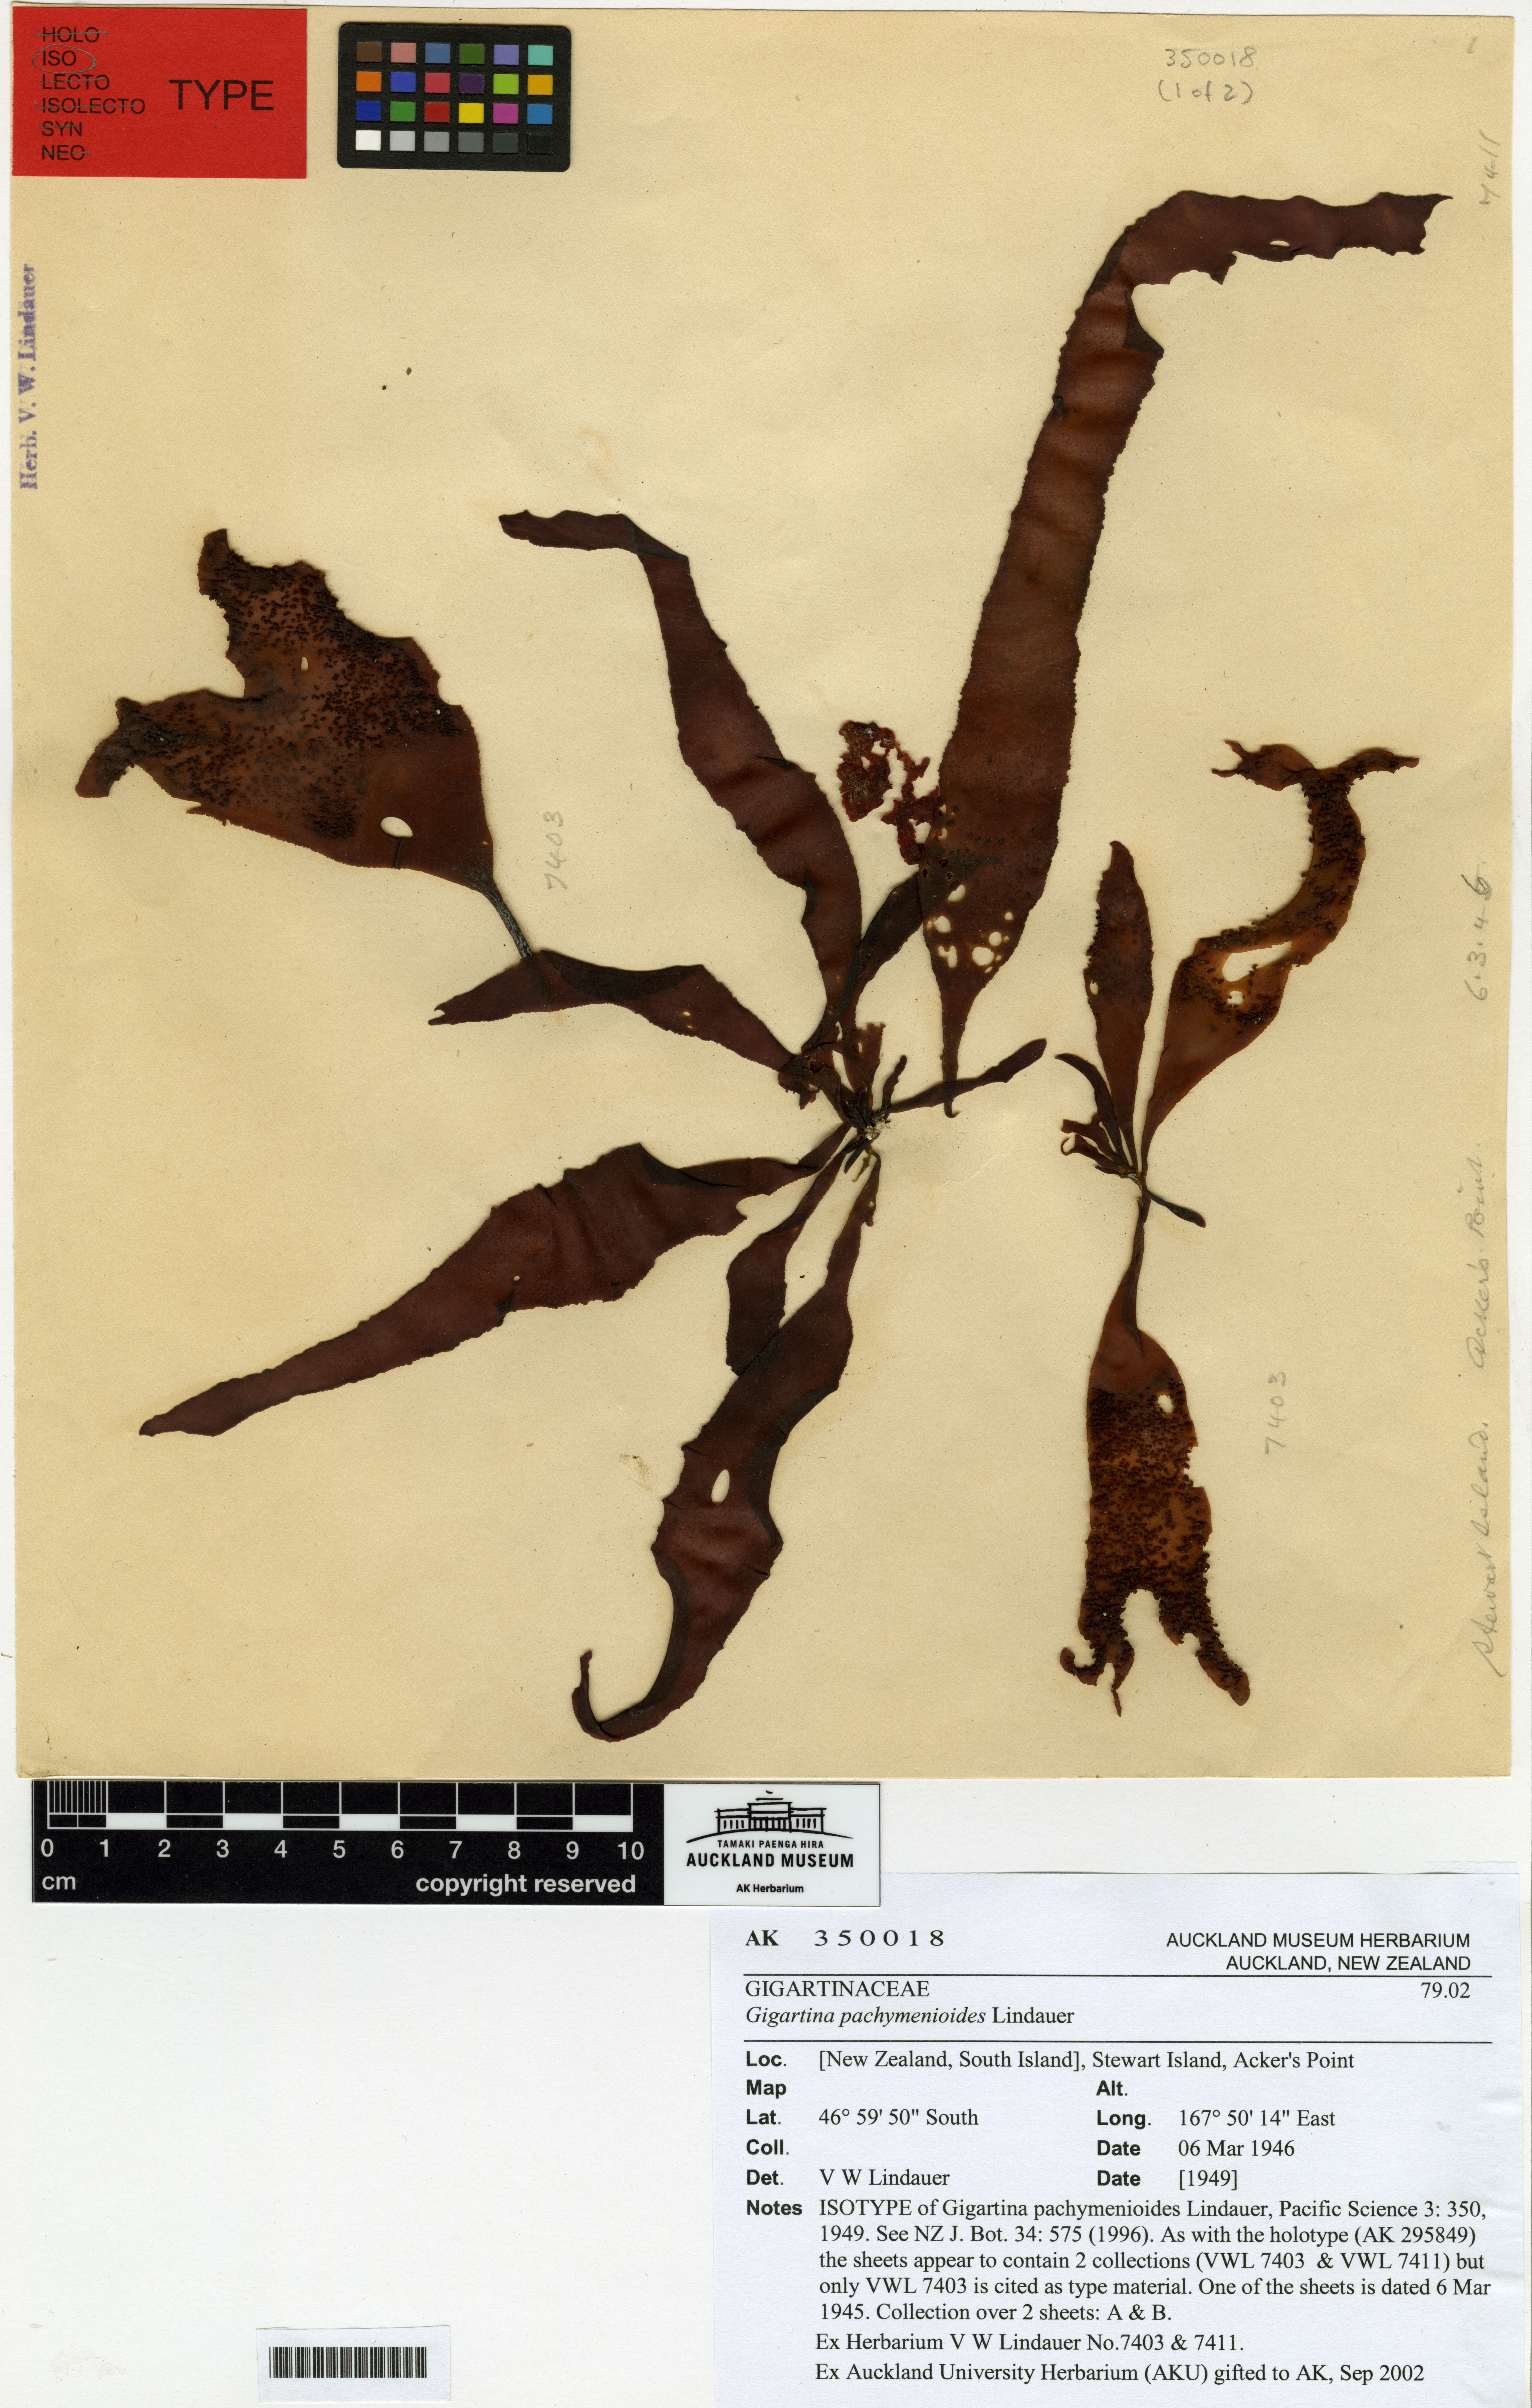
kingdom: Plantae
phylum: Rhodophyta
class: Florideophyceae
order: Gigartinales
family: Gigartinaceae
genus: Gigartina
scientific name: Gigartina pachymenioides
